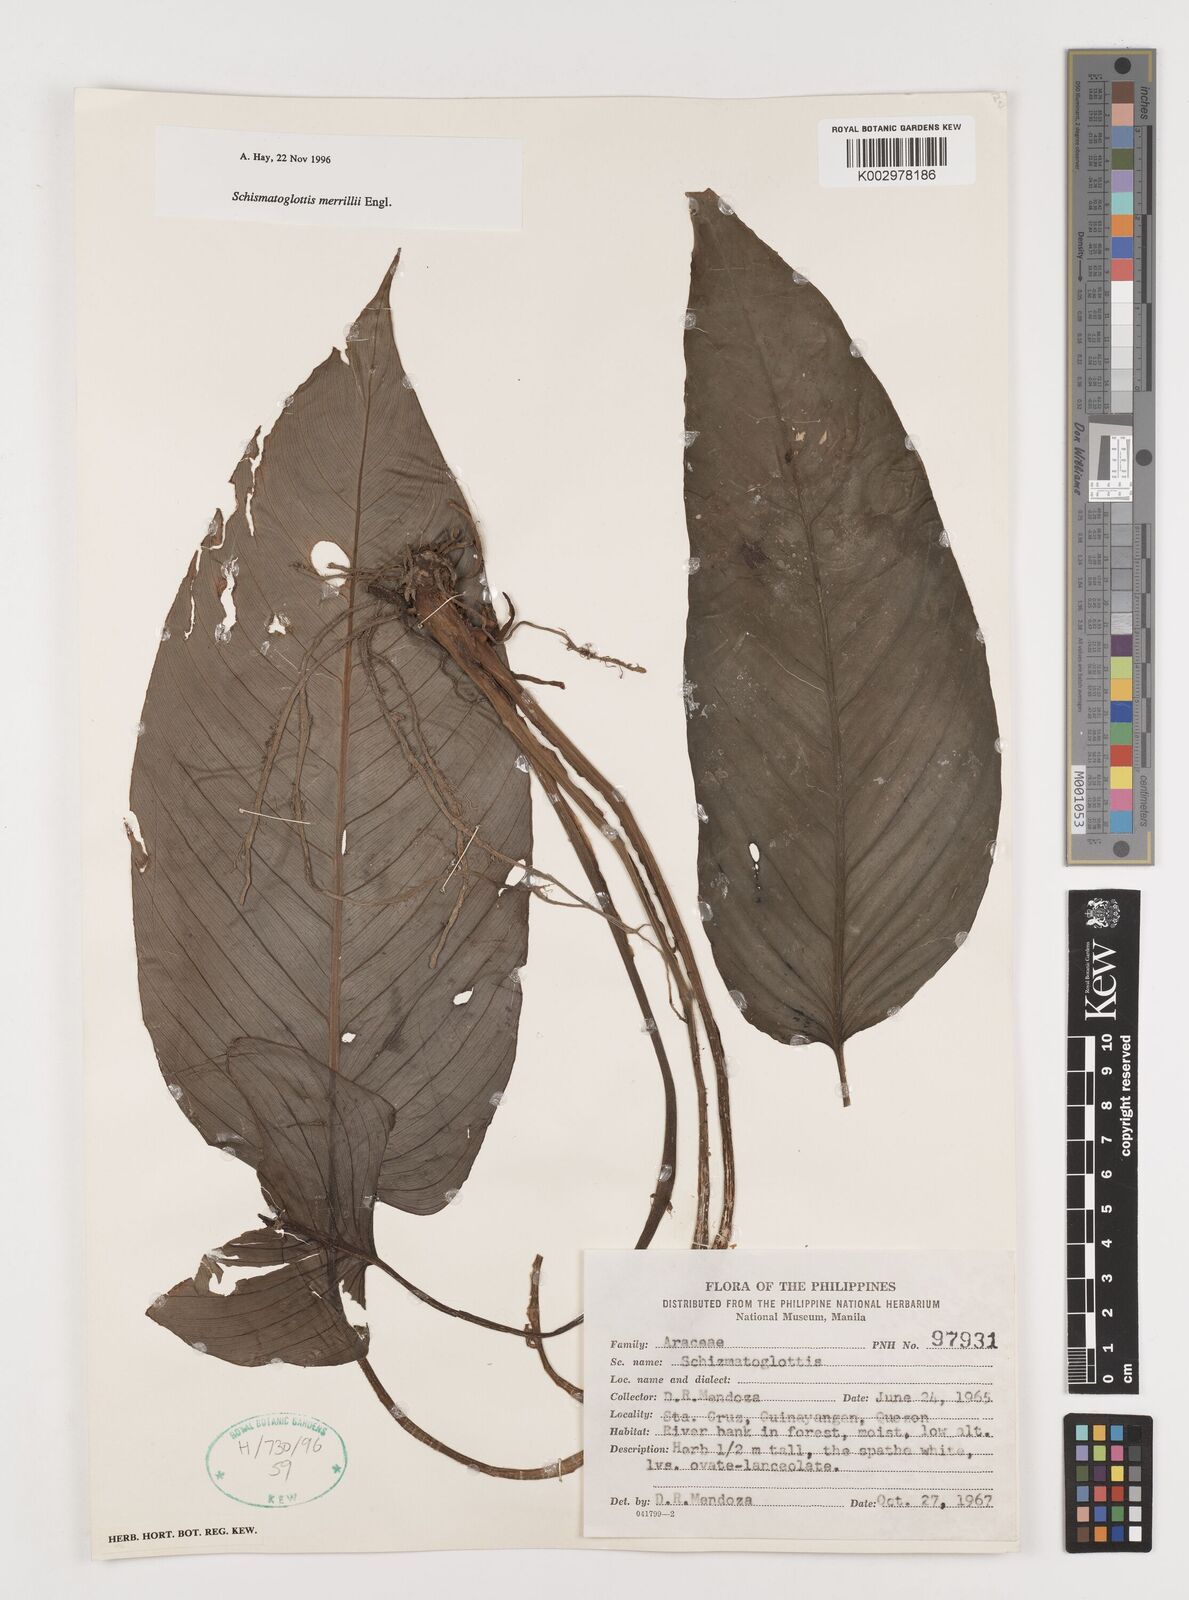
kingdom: Plantae
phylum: Tracheophyta
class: Liliopsida
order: Alismatales
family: Araceae
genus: Schismatoglottis
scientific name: Schismatoglottis merrillii
